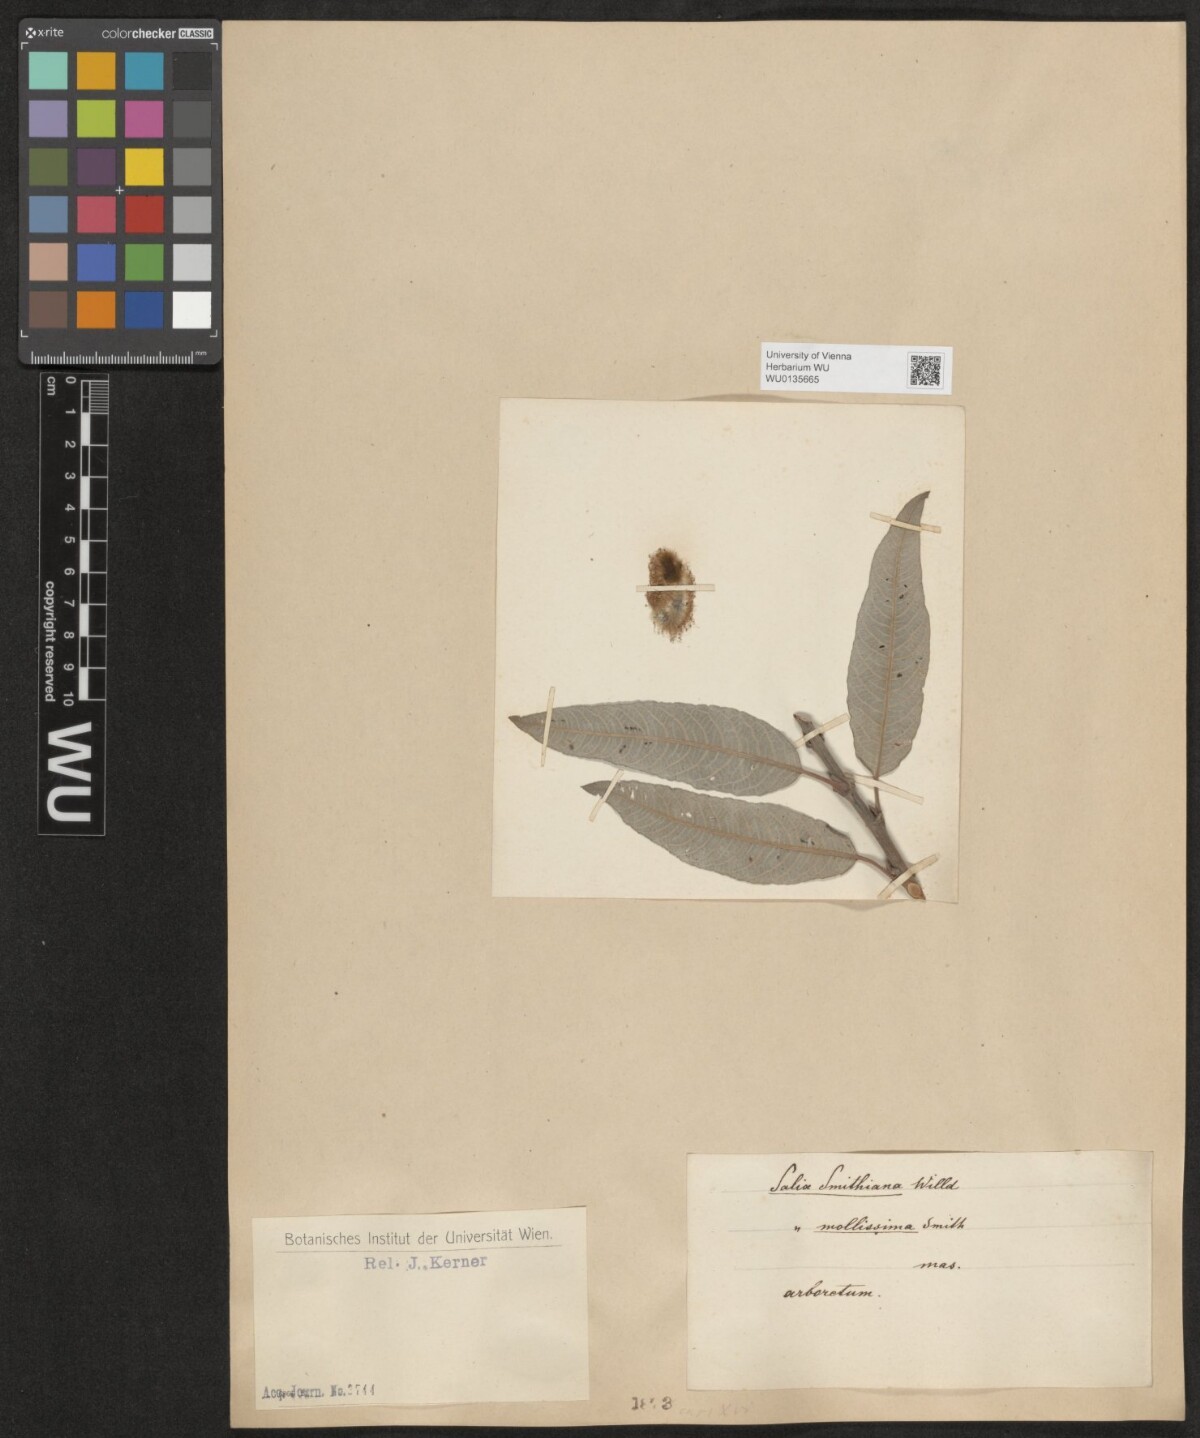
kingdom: Plantae
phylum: Tracheophyta
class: Magnoliopsida
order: Malpighiales
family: Salicaceae
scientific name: Salicaceae
